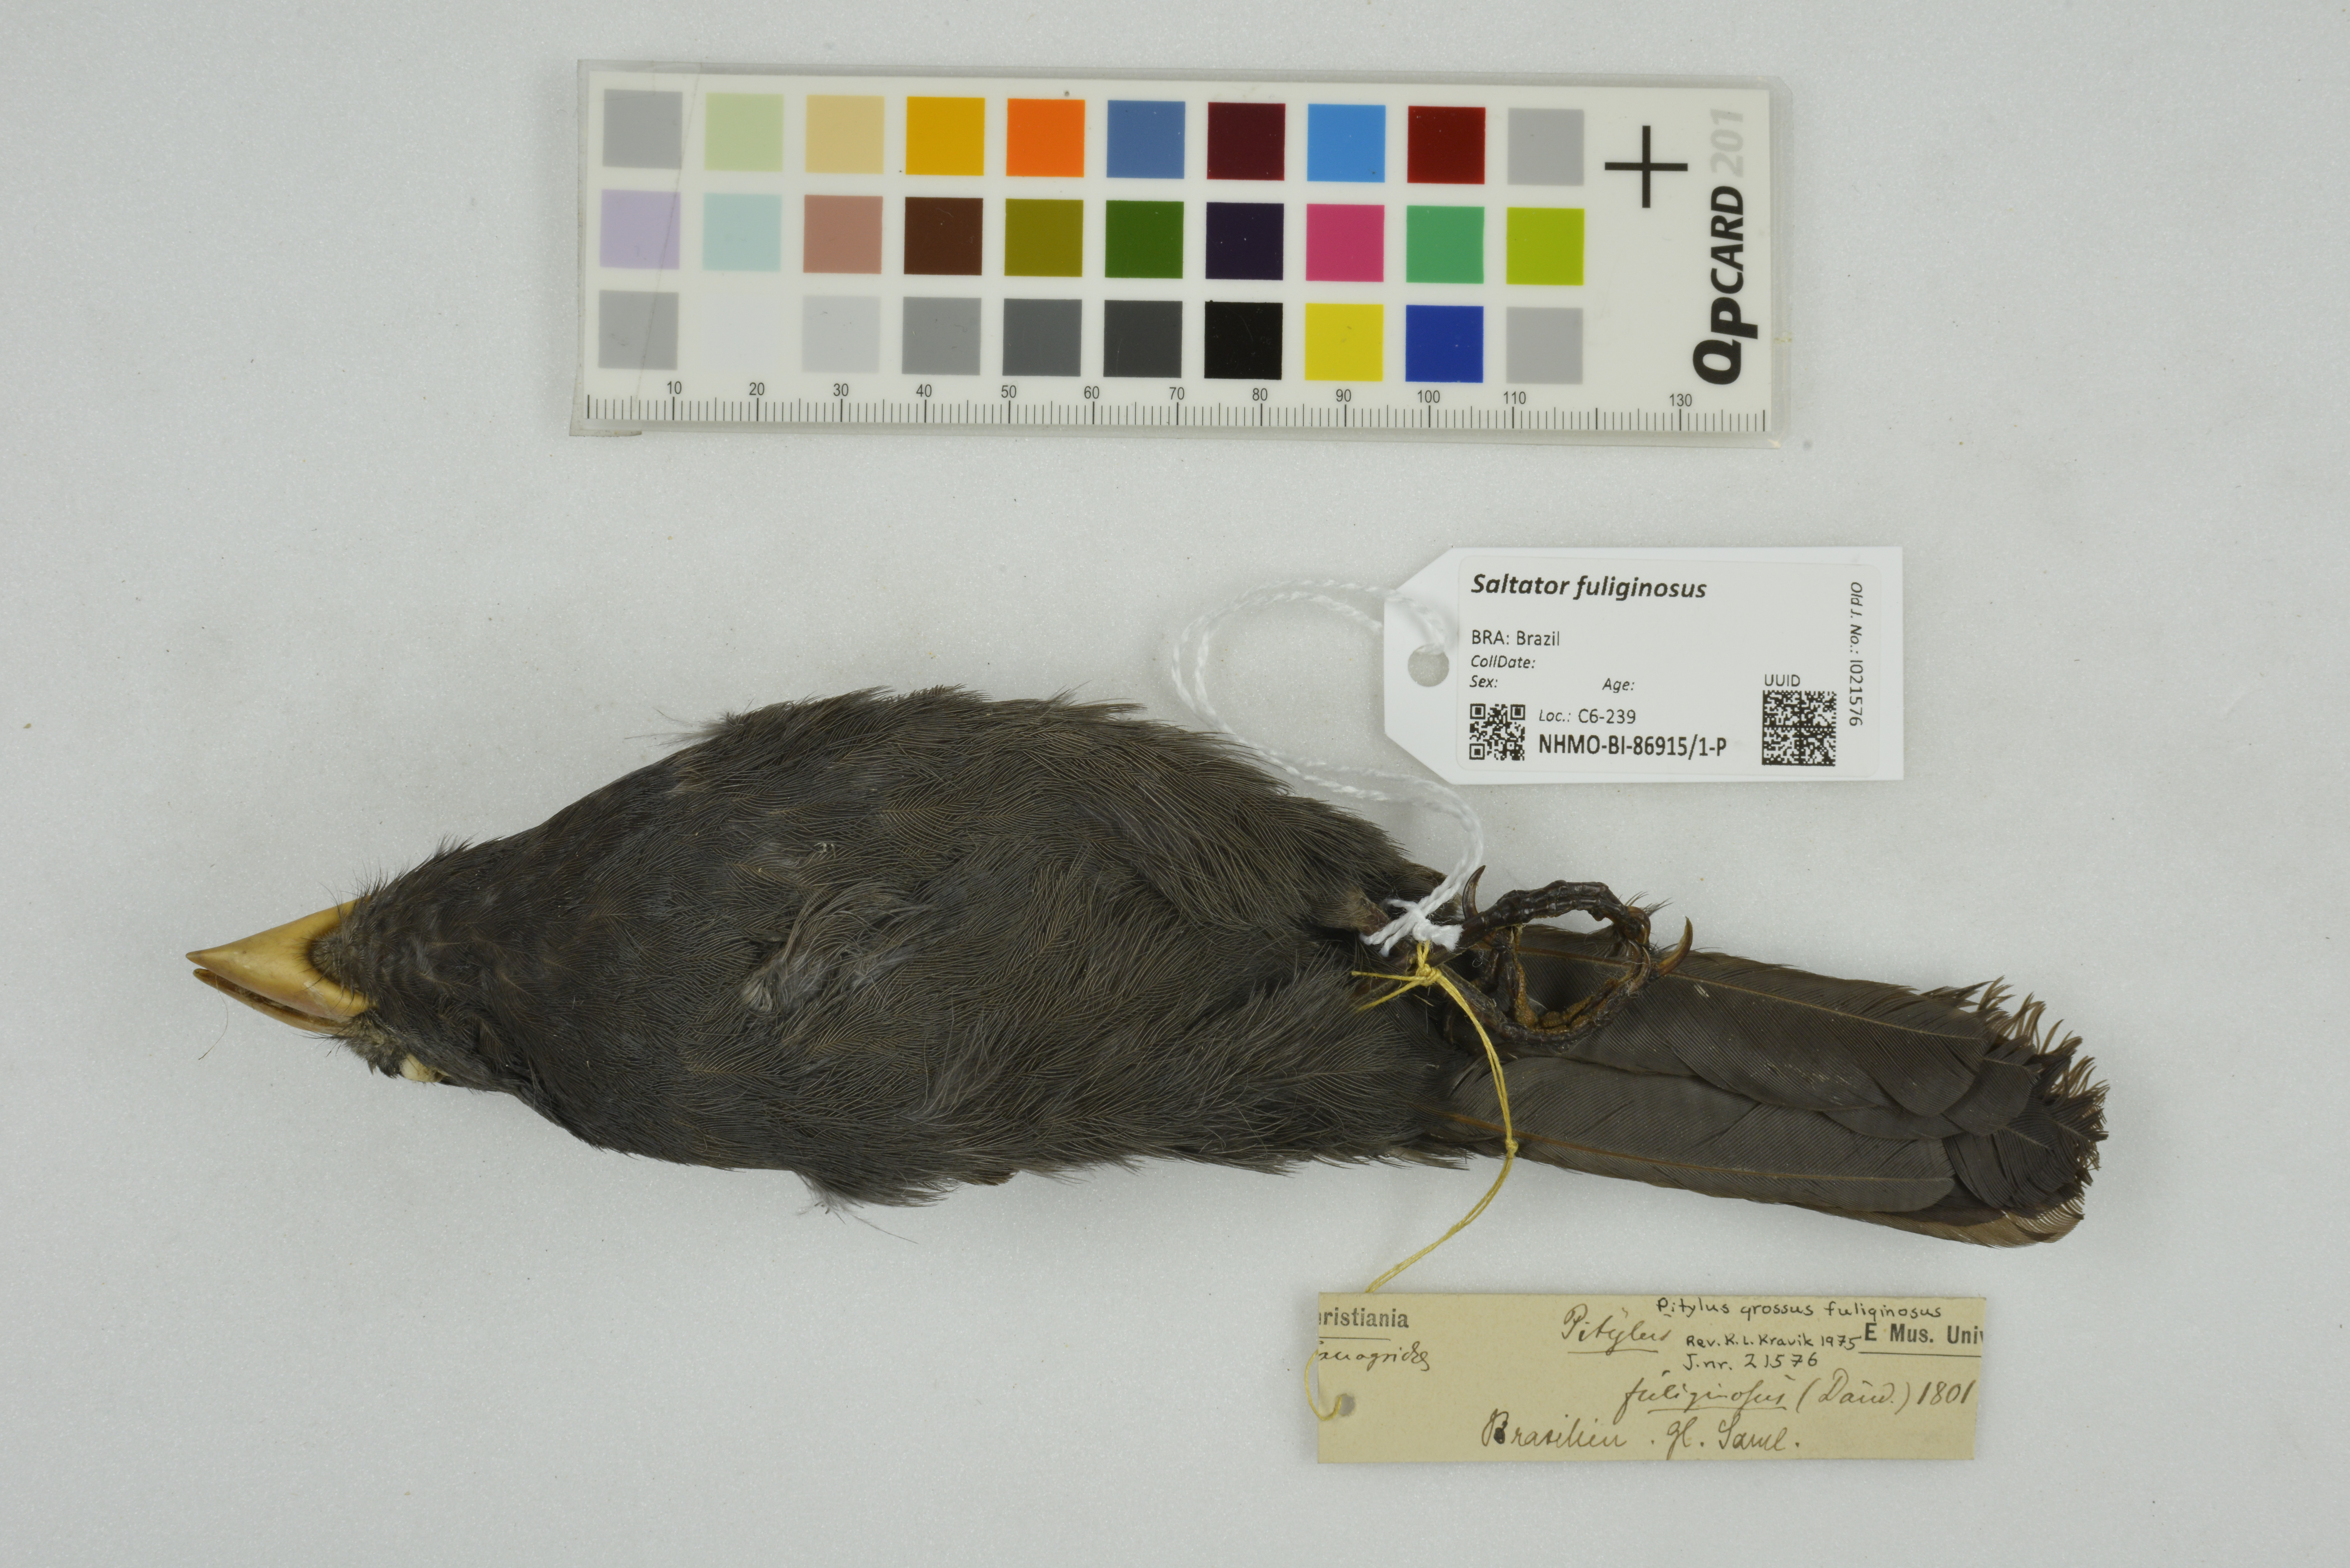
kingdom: Animalia
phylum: Chordata
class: Aves
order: Passeriformes
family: Thraupidae
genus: Saltator
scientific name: Saltator fuliginosus
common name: Black-throated grosbeak
